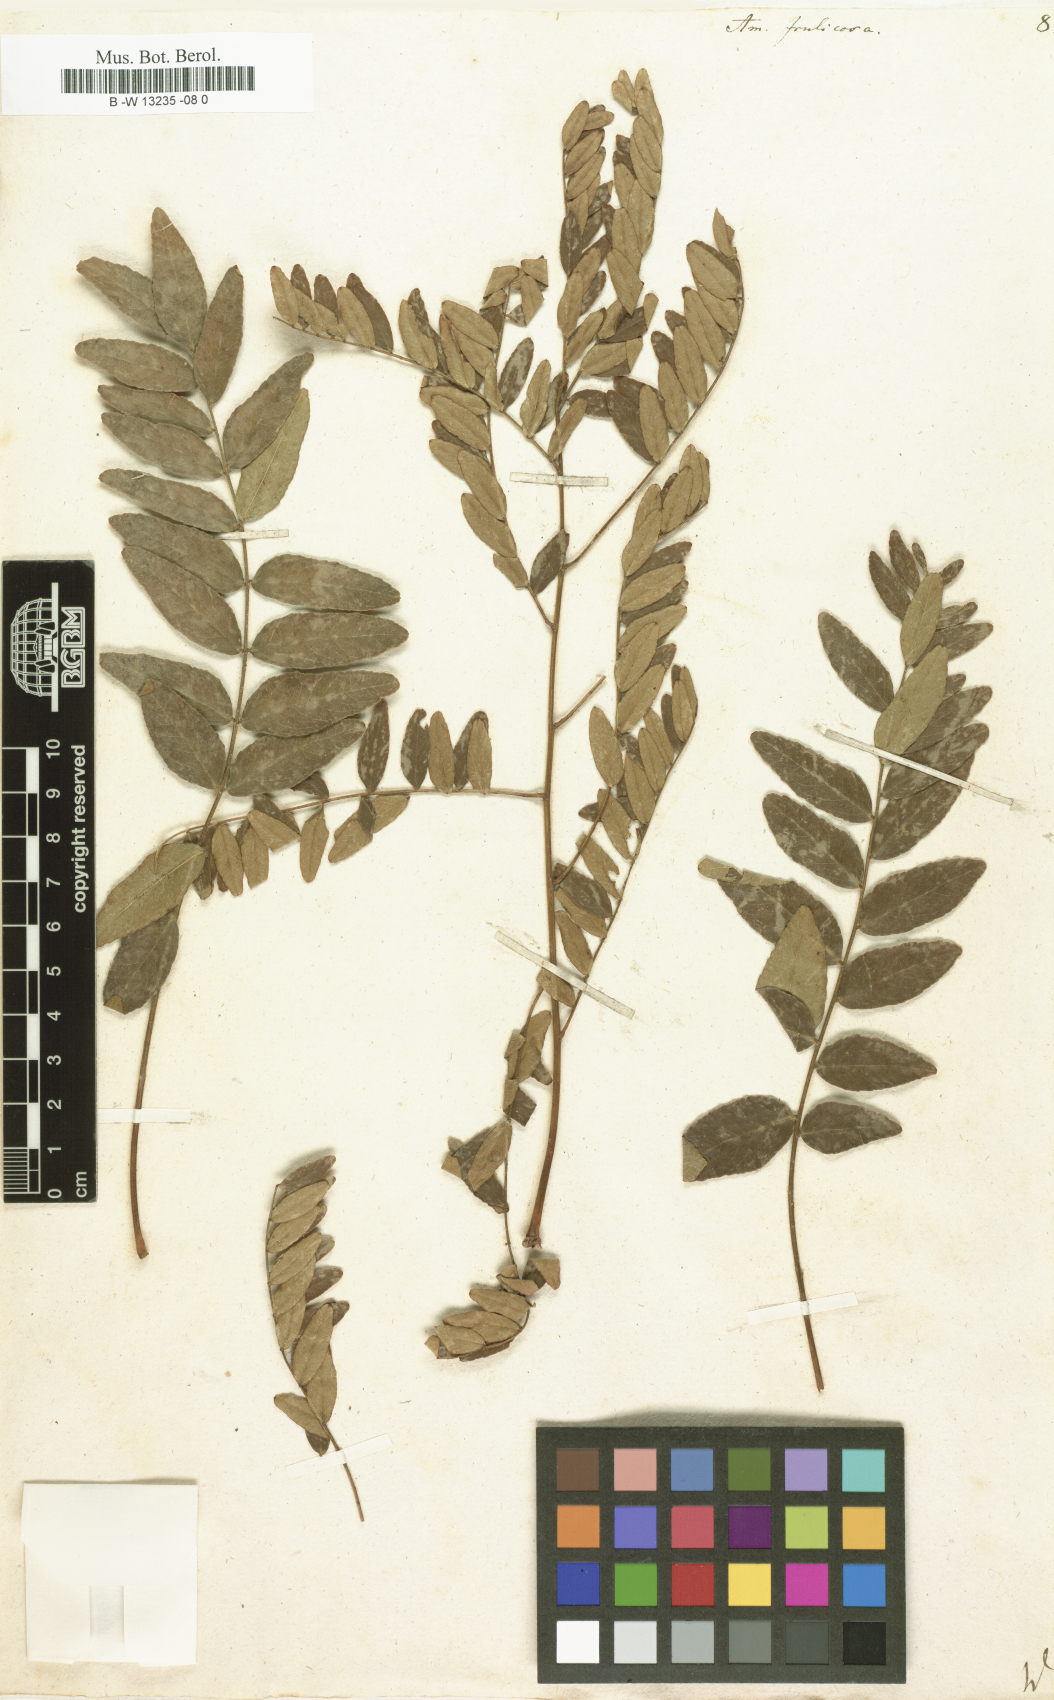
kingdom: Plantae
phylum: Tracheophyta
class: Magnoliopsida
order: Fabales
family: Fabaceae
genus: Amorpha
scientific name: Amorpha fruticosa
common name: False indigo
